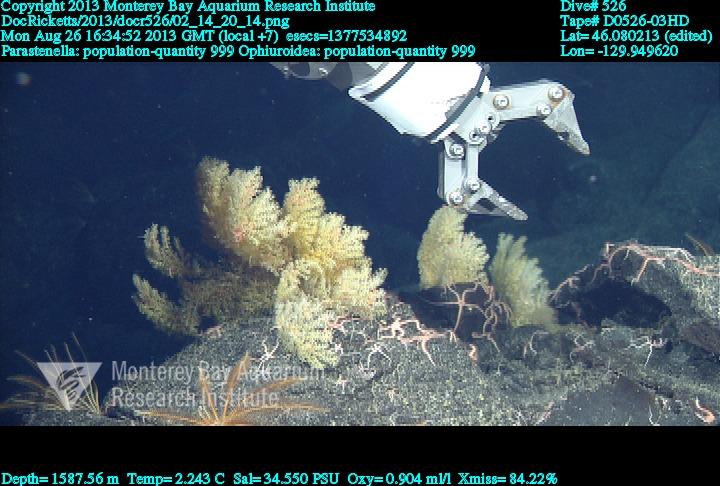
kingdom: Animalia
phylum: Cnidaria
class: Anthozoa
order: Scleralcyonacea
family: Primnoidae
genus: Parastenella
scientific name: Parastenella
